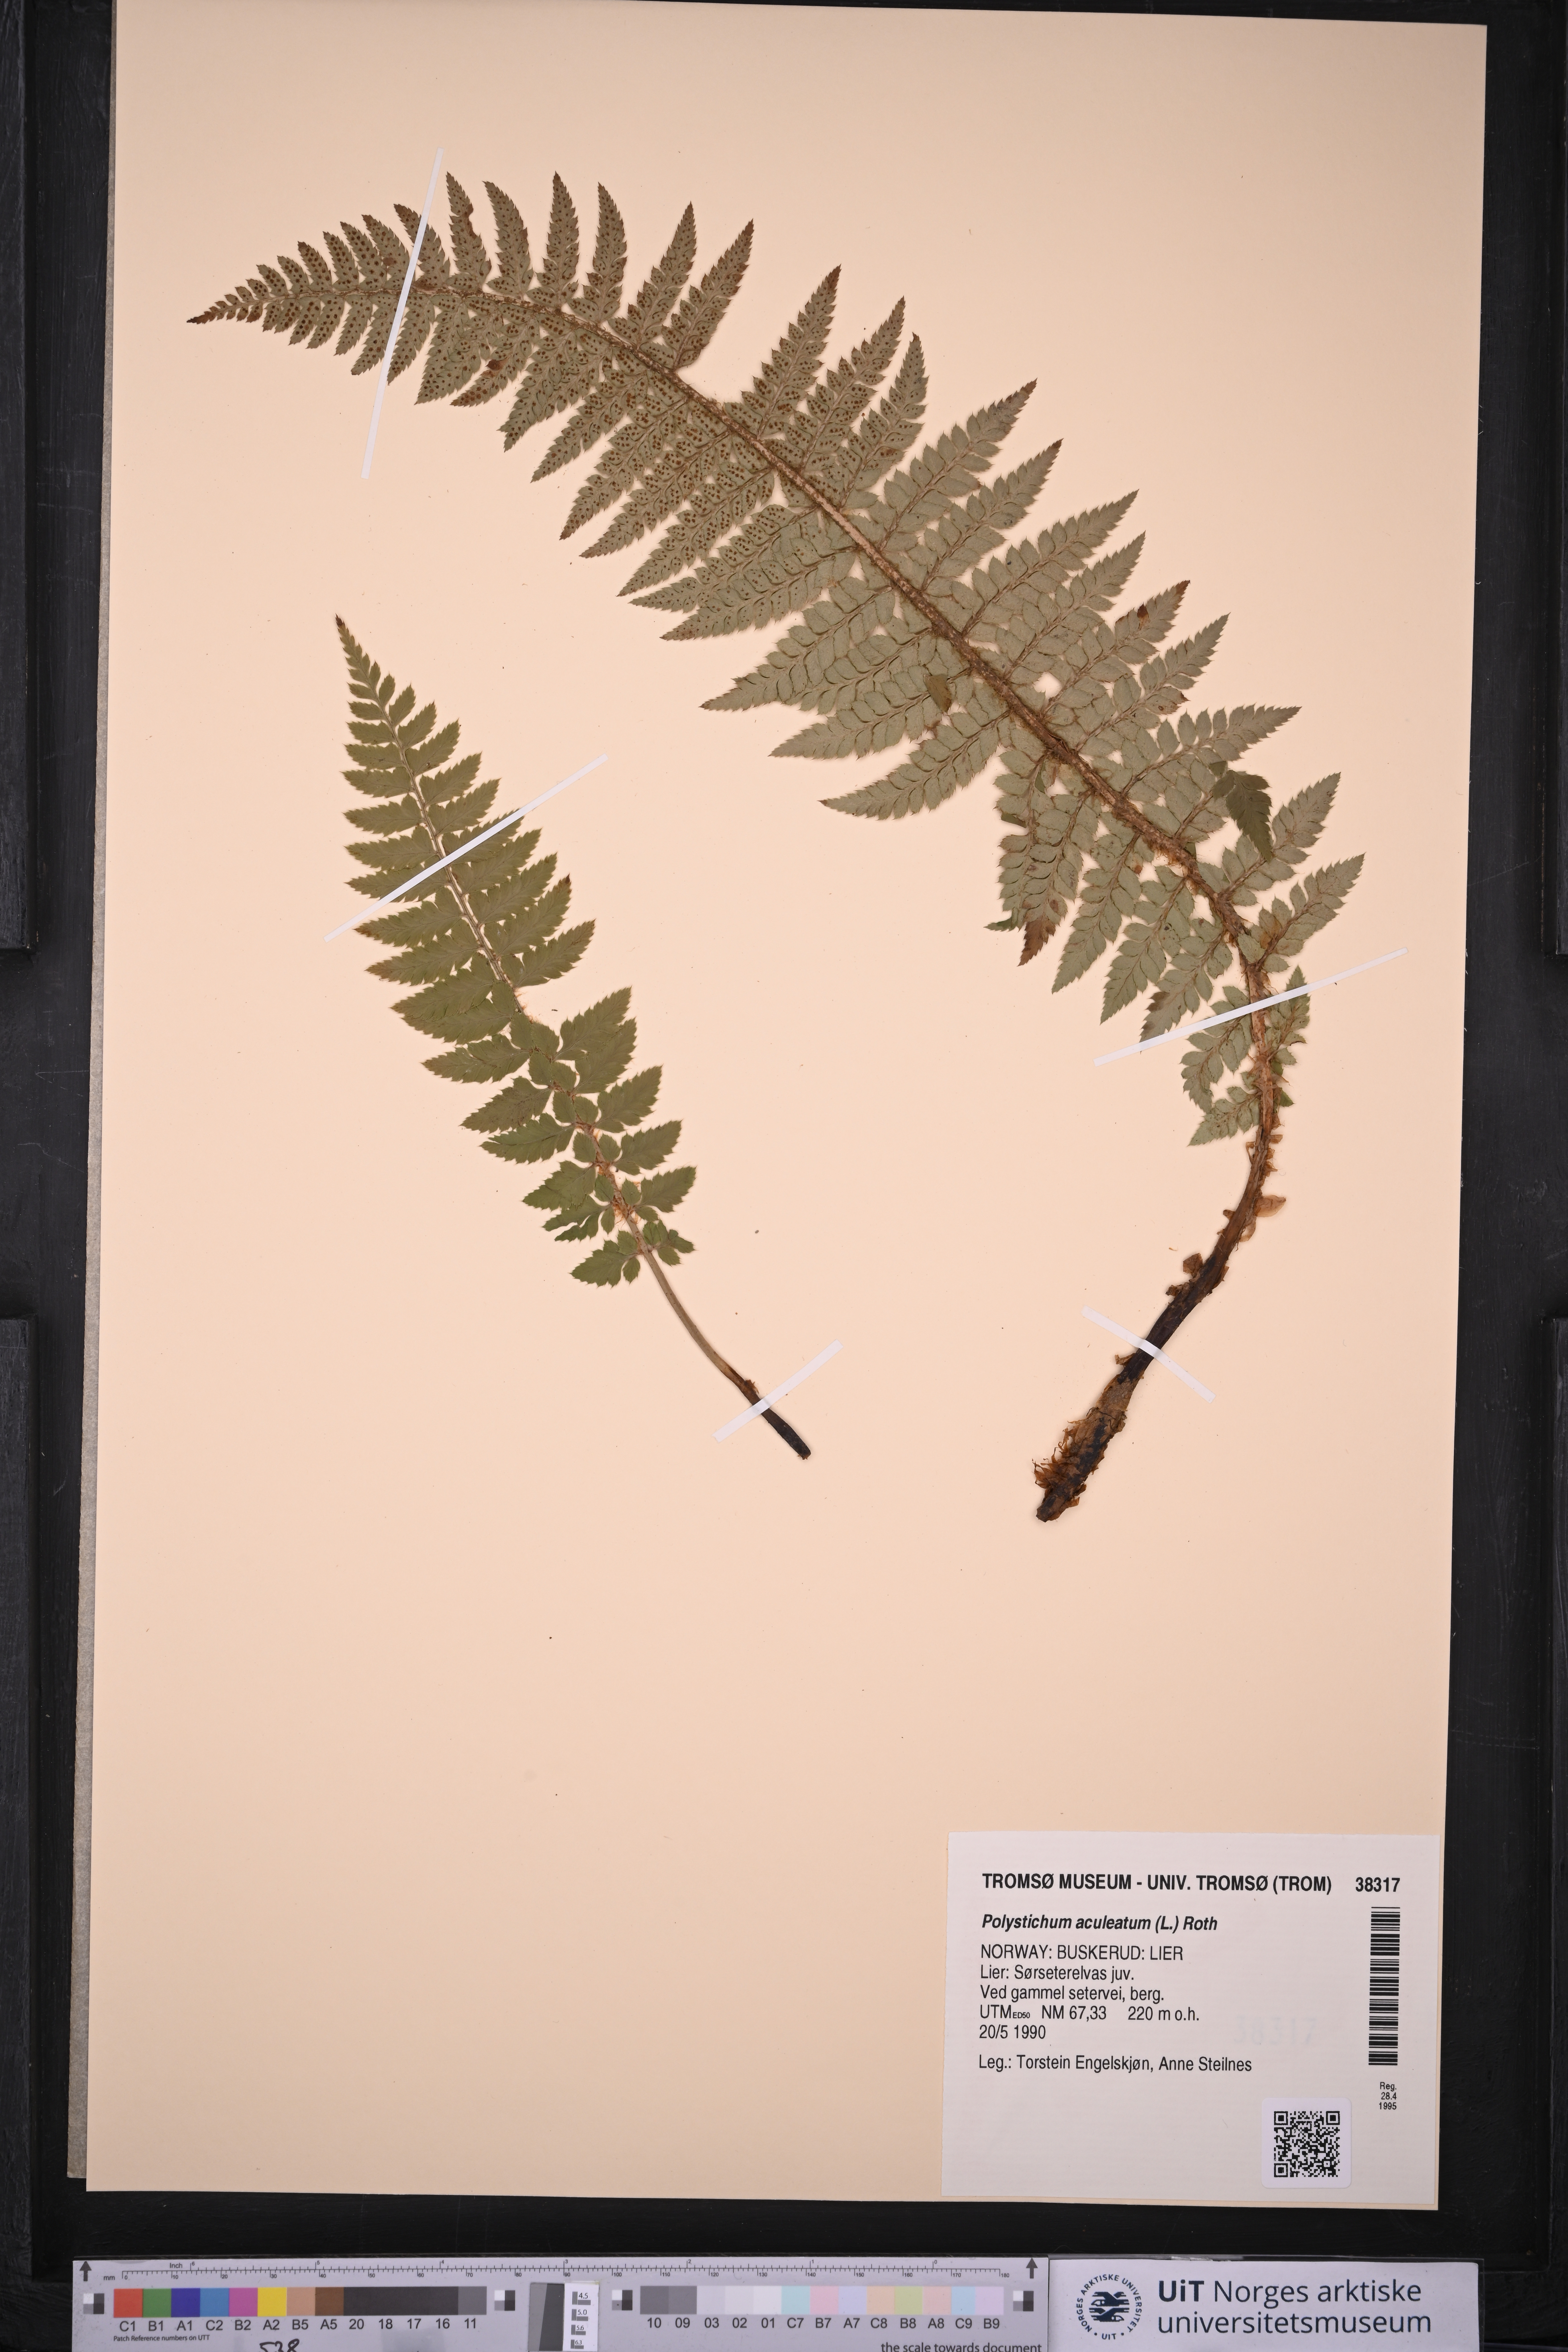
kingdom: Plantae
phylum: Tracheophyta
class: Polypodiopsida
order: Polypodiales
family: Dryopteridaceae
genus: Polystichum
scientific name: Polystichum aculeatum
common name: Hard shield-fern
